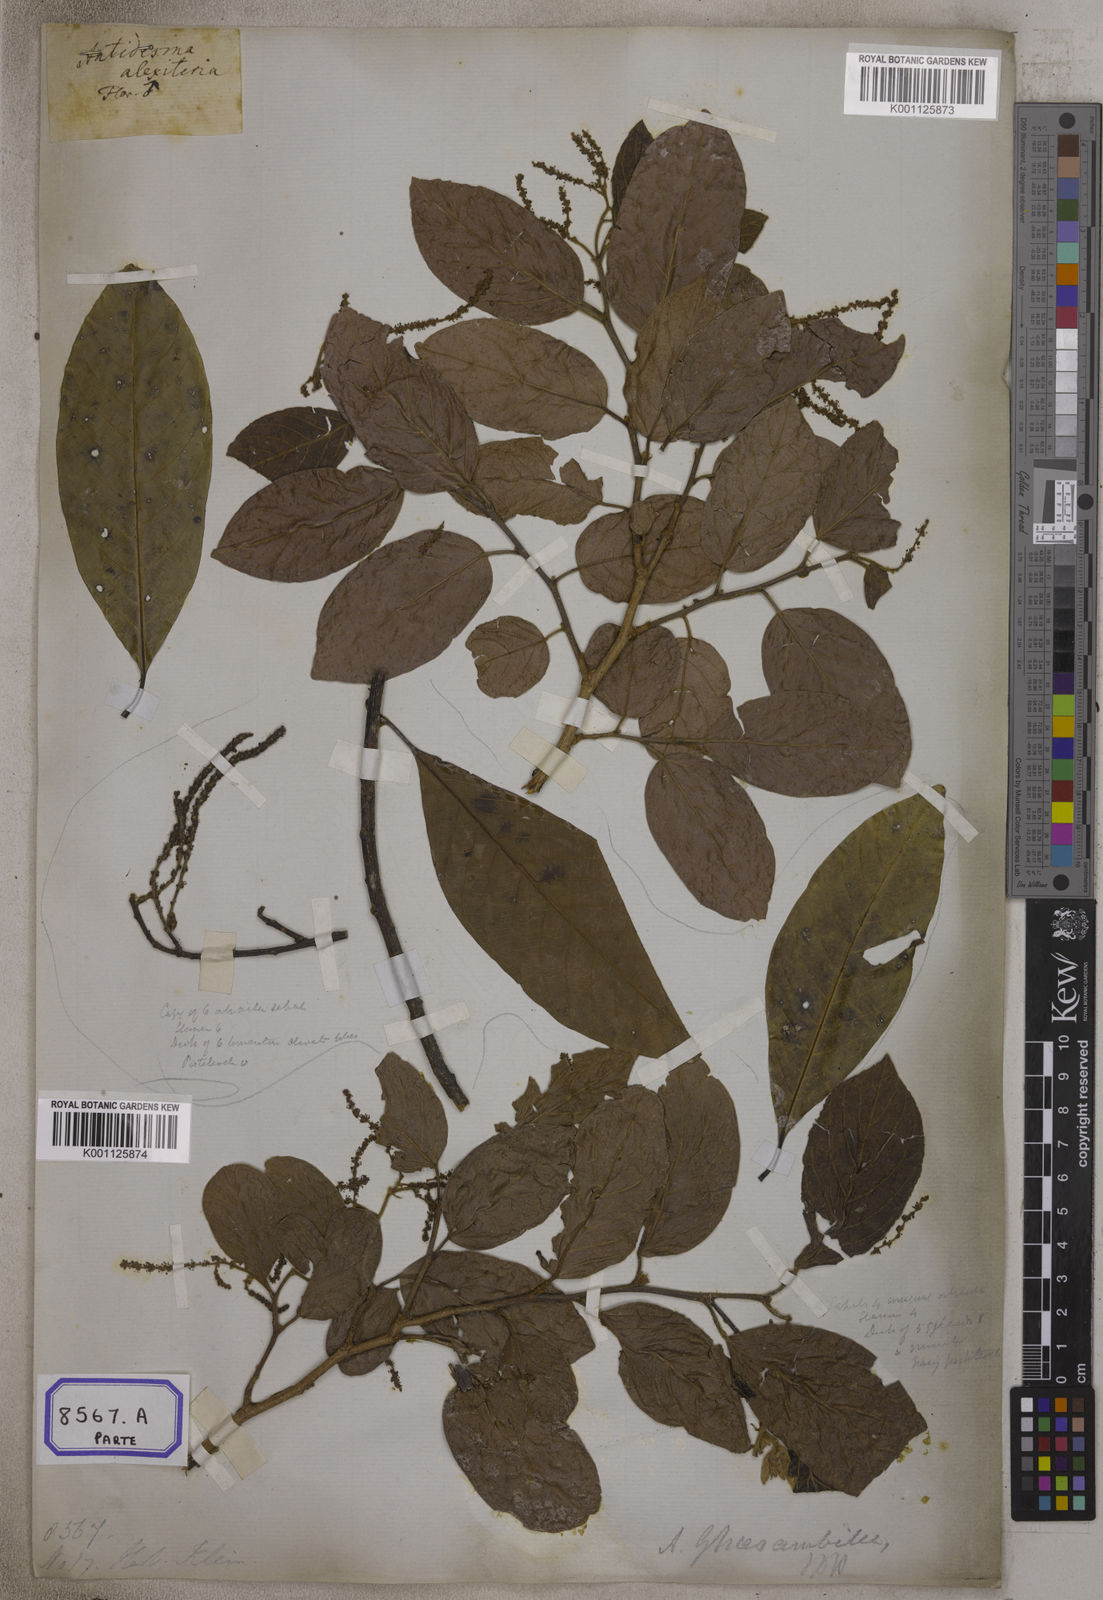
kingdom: Plantae
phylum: Tracheophyta
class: Magnoliopsida
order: Malpighiales
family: Phyllanthaceae
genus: Antidesma
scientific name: Antidesma ghaesembilla
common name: Black currant-tree
